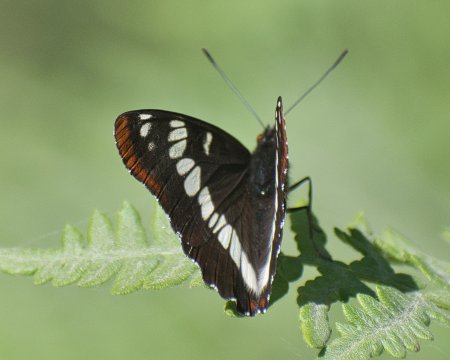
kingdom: Animalia
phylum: Arthropoda
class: Insecta
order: Lepidoptera
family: Nymphalidae
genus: Limenitis
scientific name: Limenitis lorquini
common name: Lorquin's Admiral
